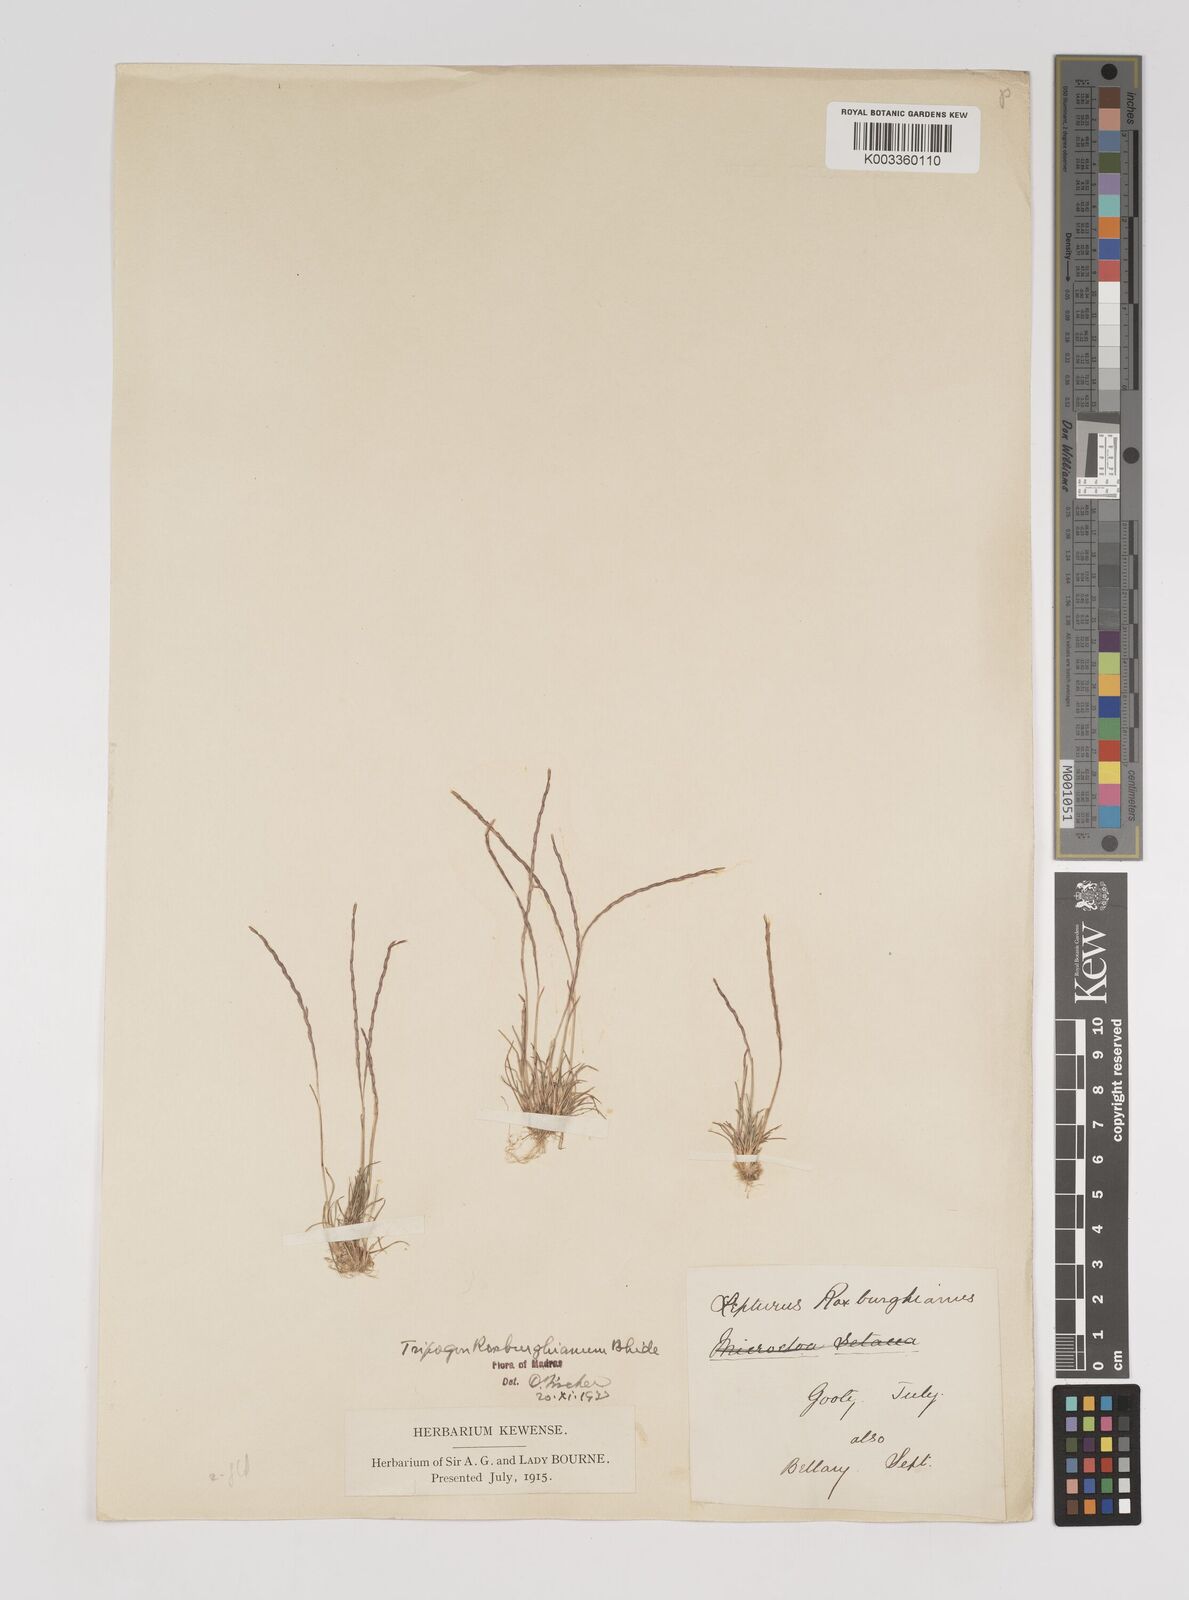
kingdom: Plantae
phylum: Tracheophyta
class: Liliopsida
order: Poales
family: Poaceae
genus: Oropetium
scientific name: Oropetium roxburghianum
